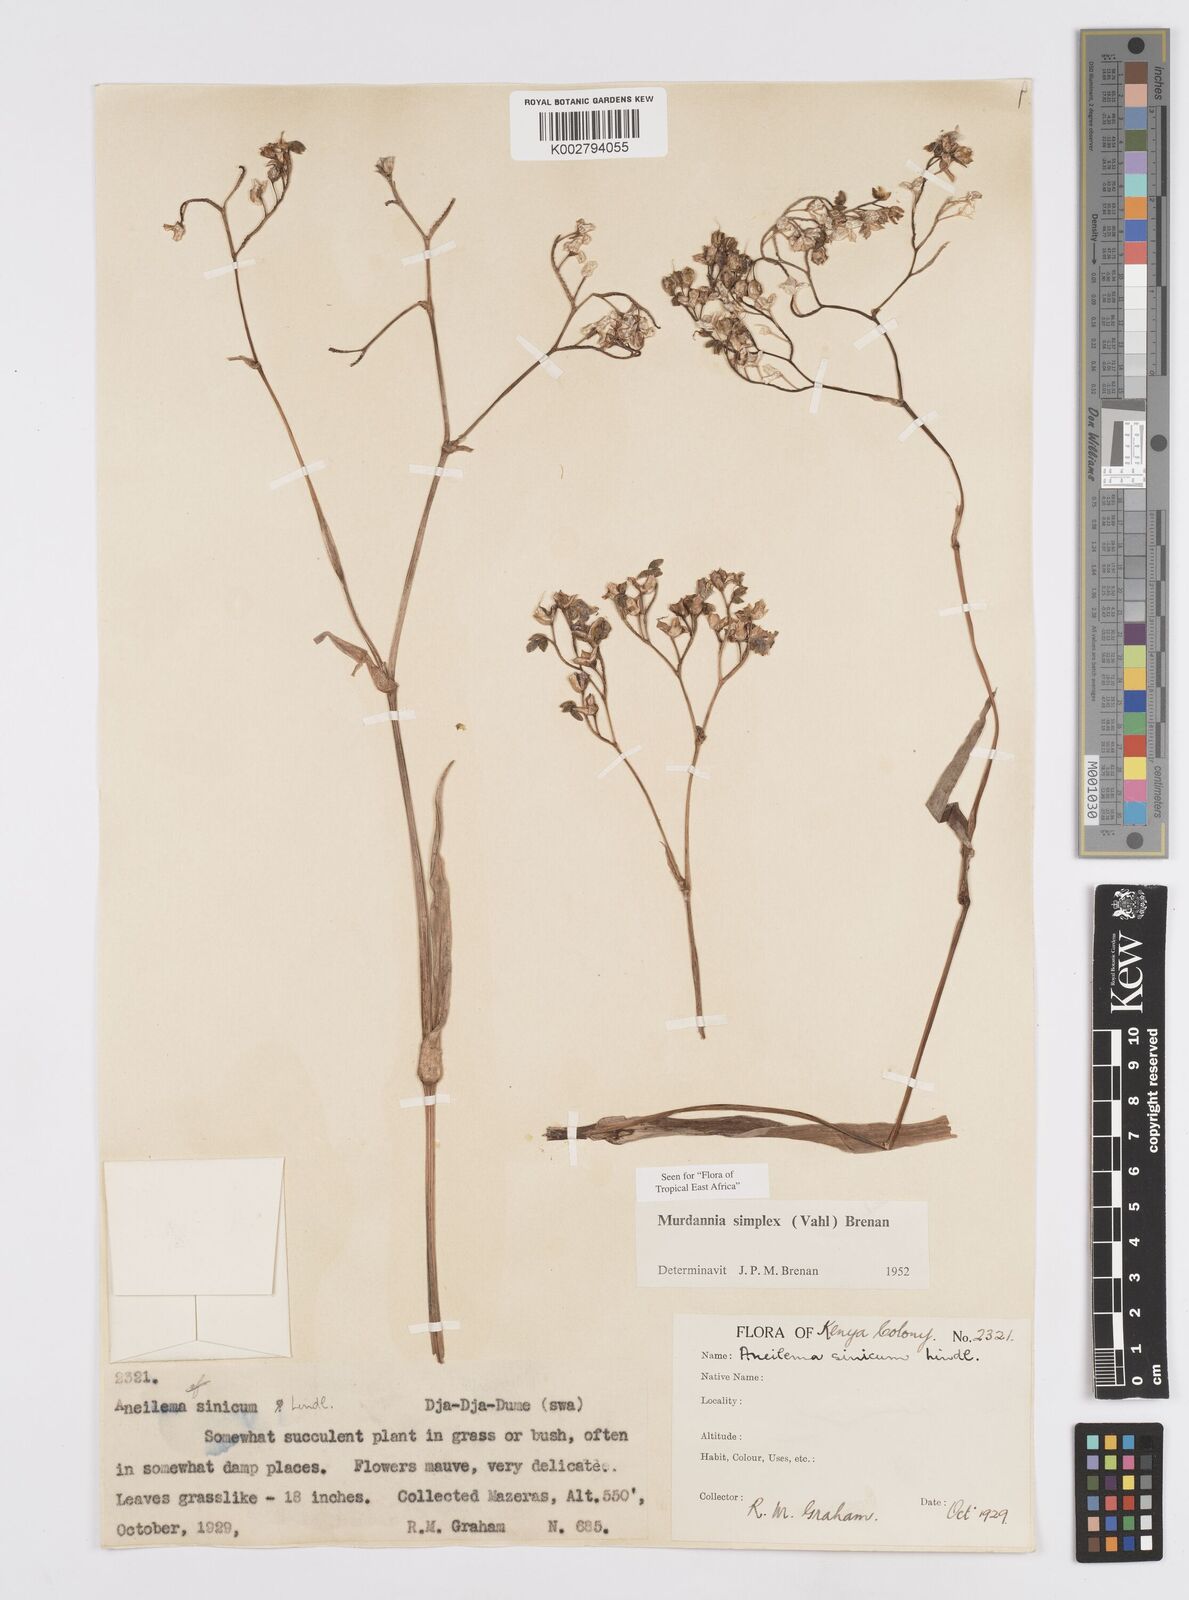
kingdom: Plantae
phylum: Tracheophyta
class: Liliopsida
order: Commelinales
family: Commelinaceae
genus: Murdannia
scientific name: Murdannia simplex
